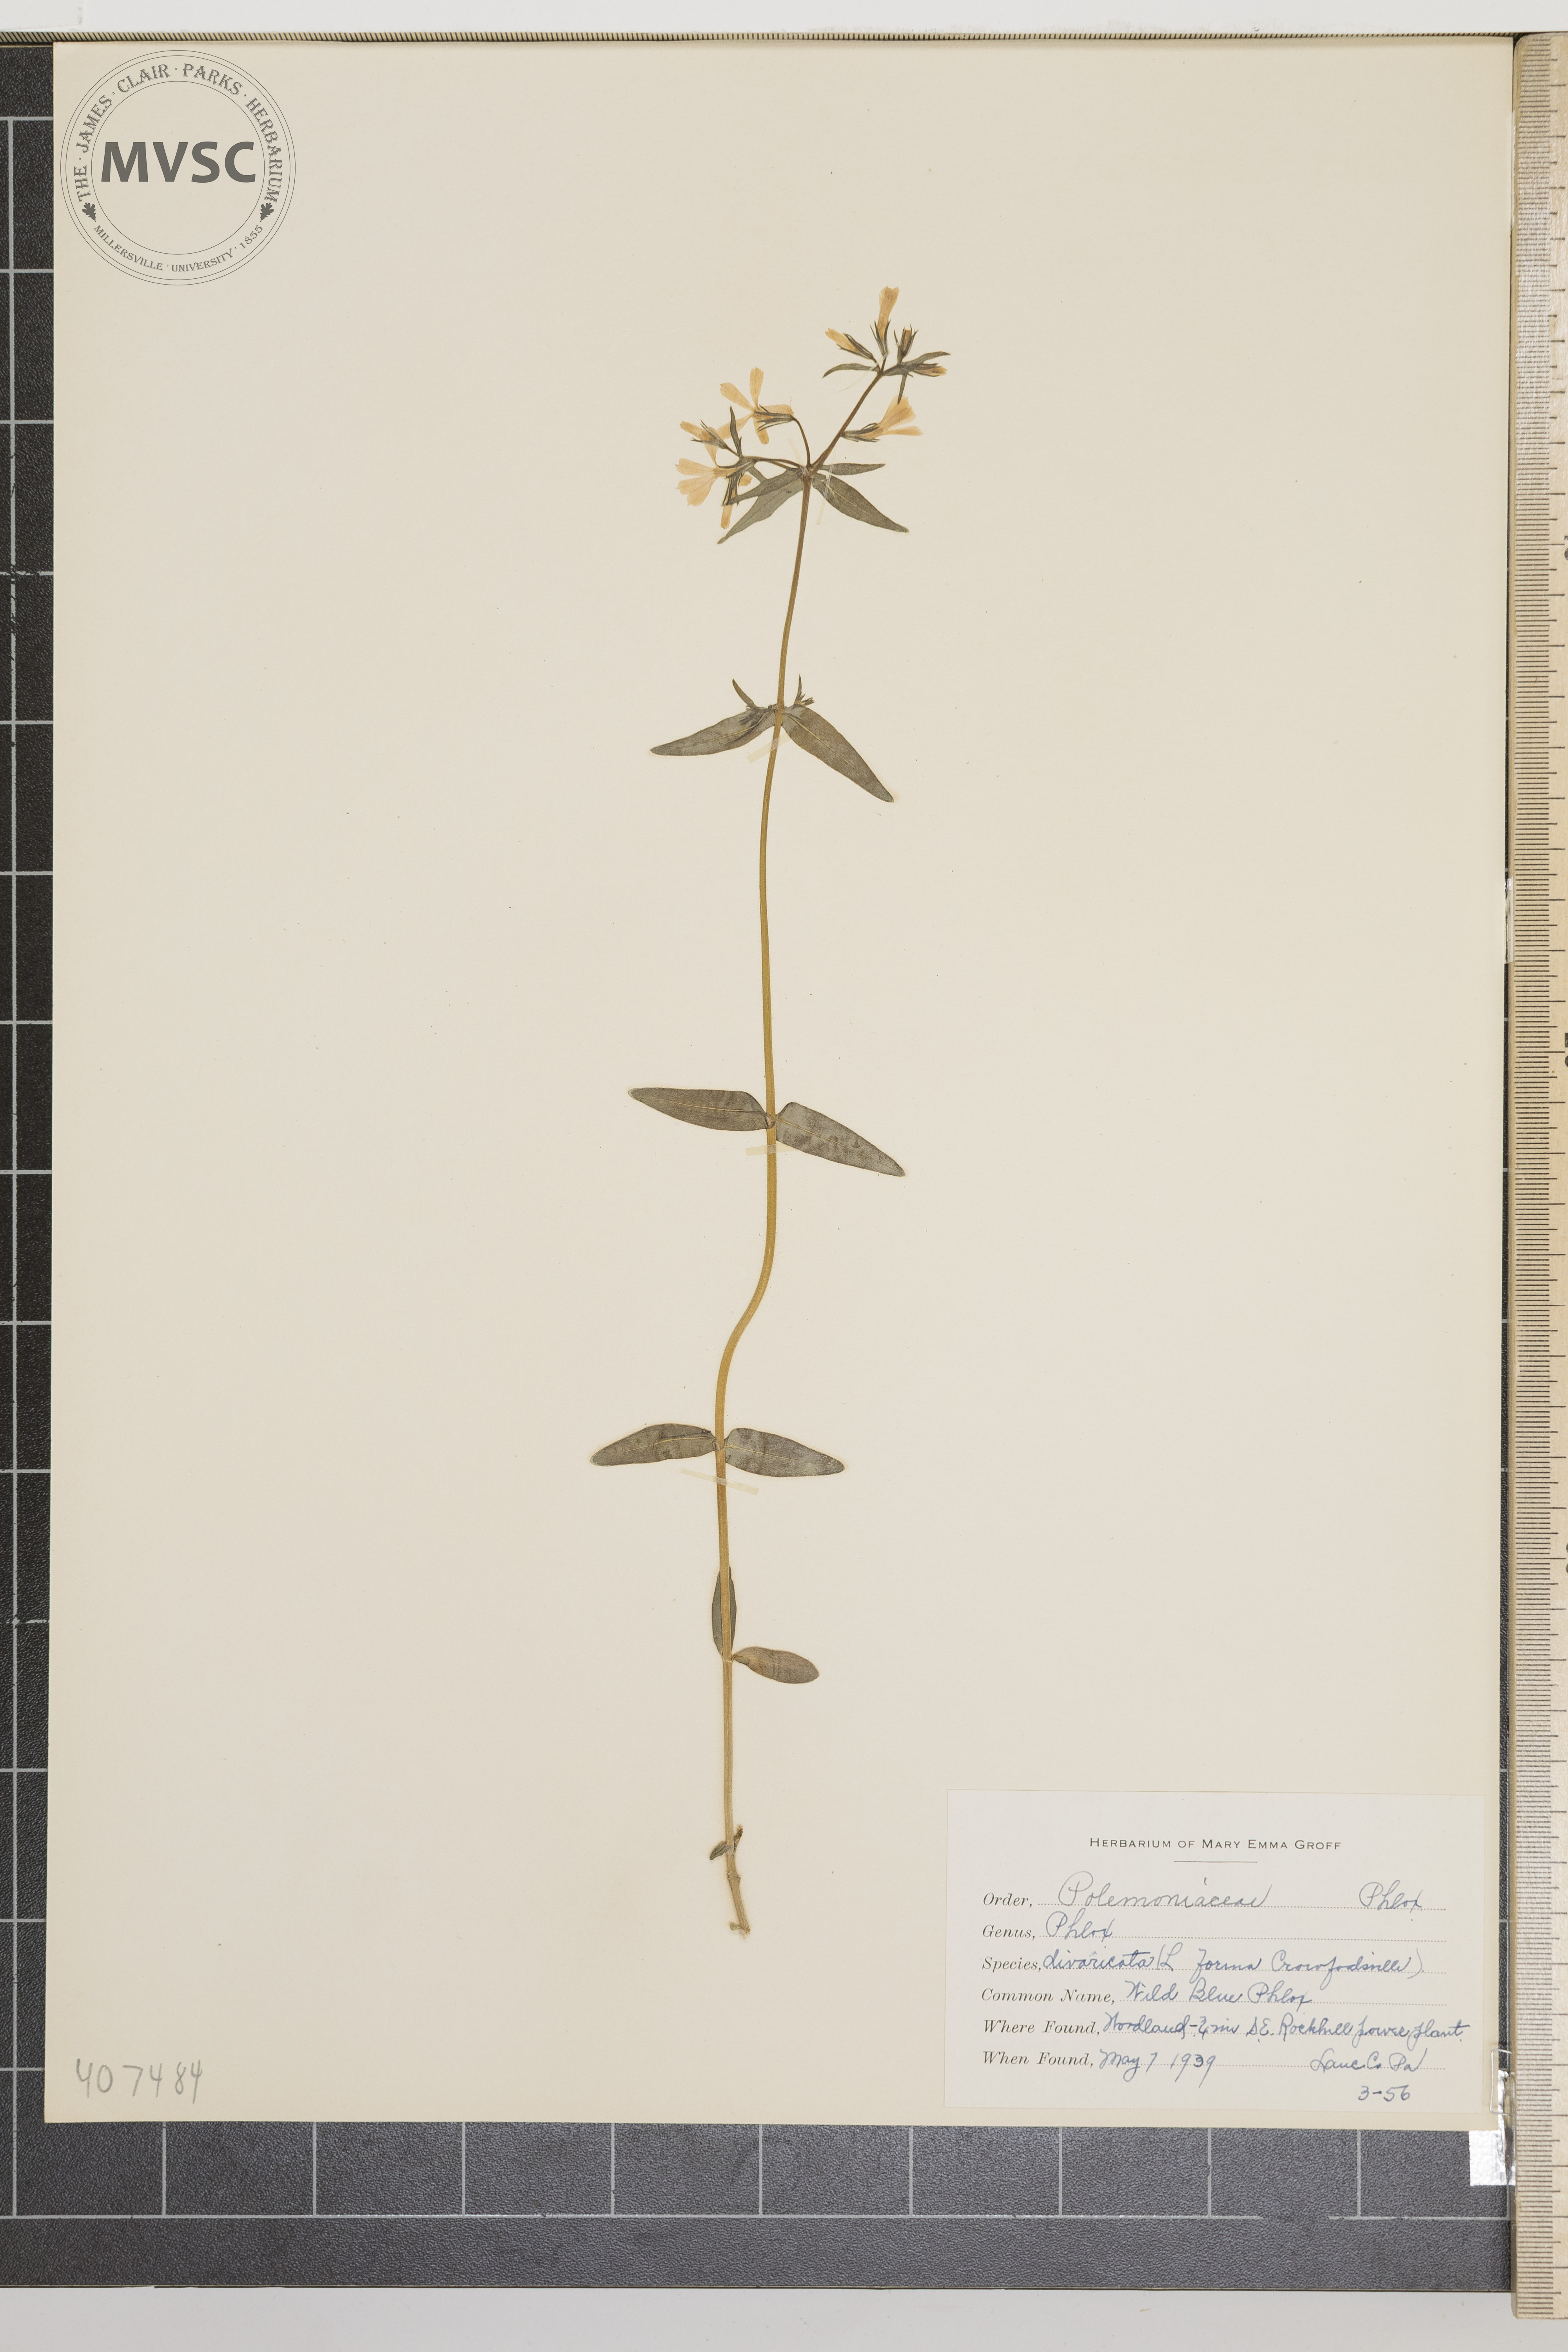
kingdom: Plantae
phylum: Tracheophyta
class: Magnoliopsida
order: Ericales
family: Polemoniaceae
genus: Phlox
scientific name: Phlox divaricata
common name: Wild Blue Phlox
